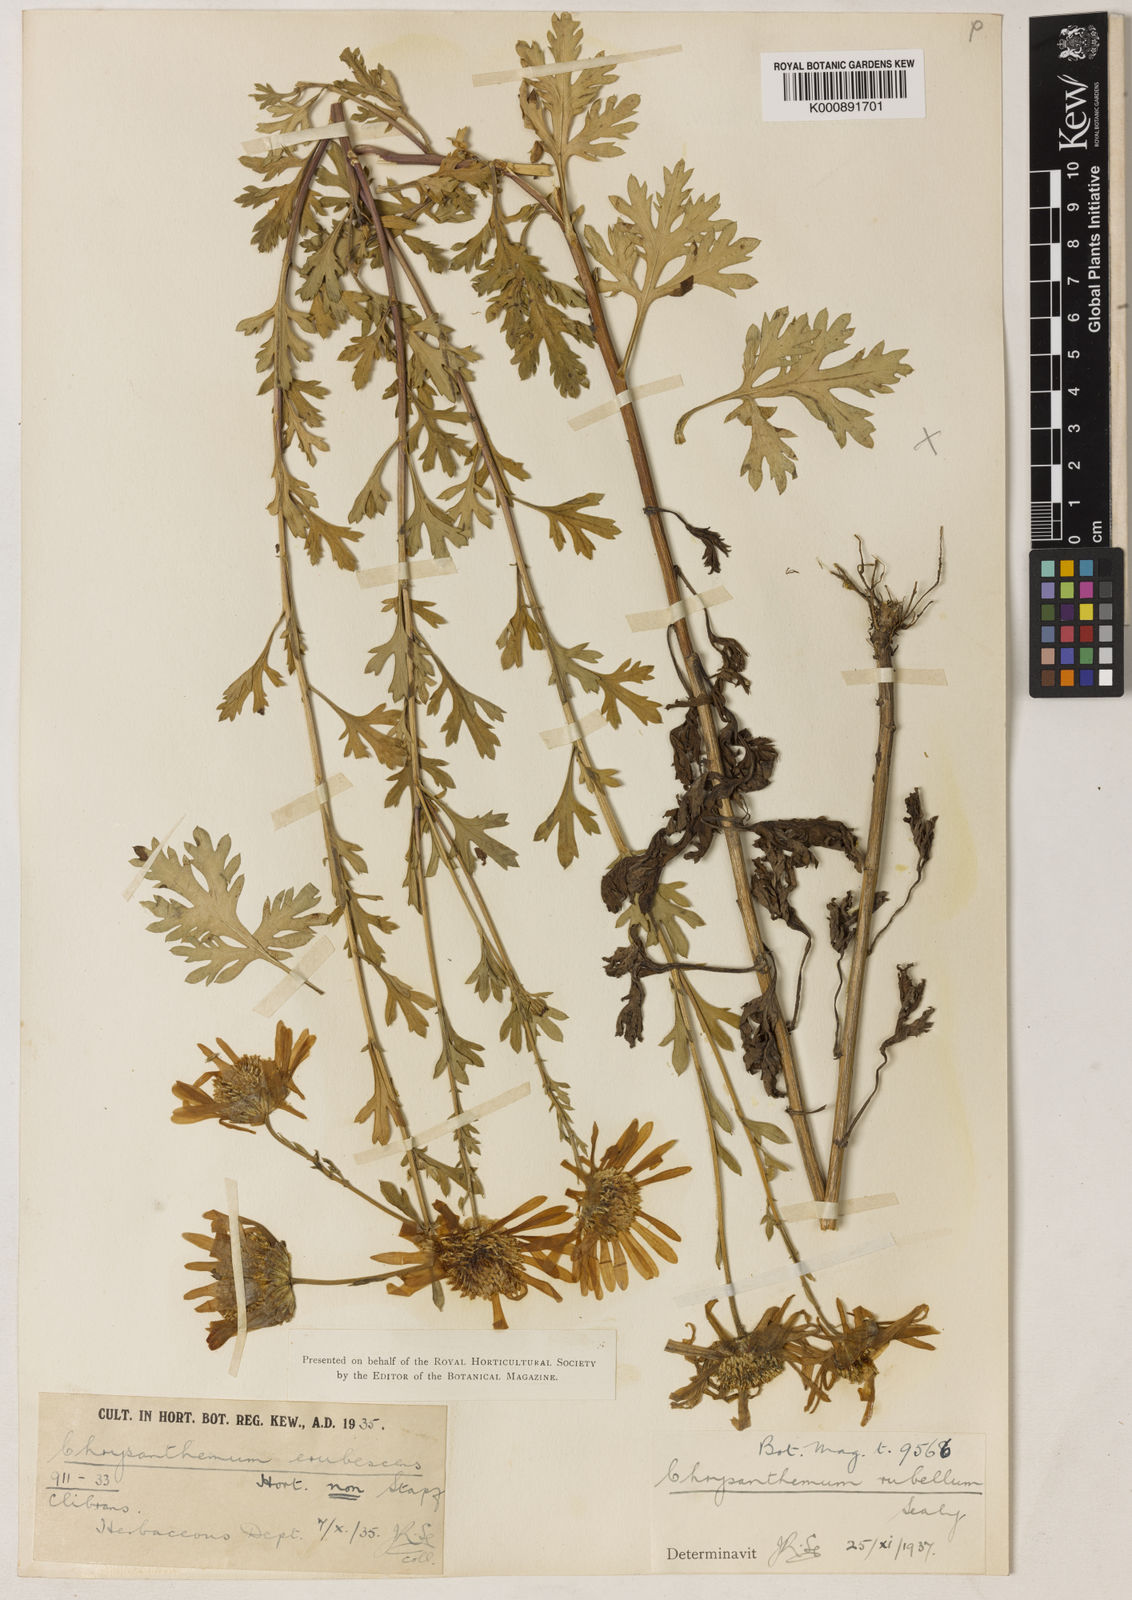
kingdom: Plantae
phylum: Tracheophyta
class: Magnoliopsida
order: Asterales
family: Asteraceae
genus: Chrysanthemum
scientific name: Chrysanthemum zawadzkii
